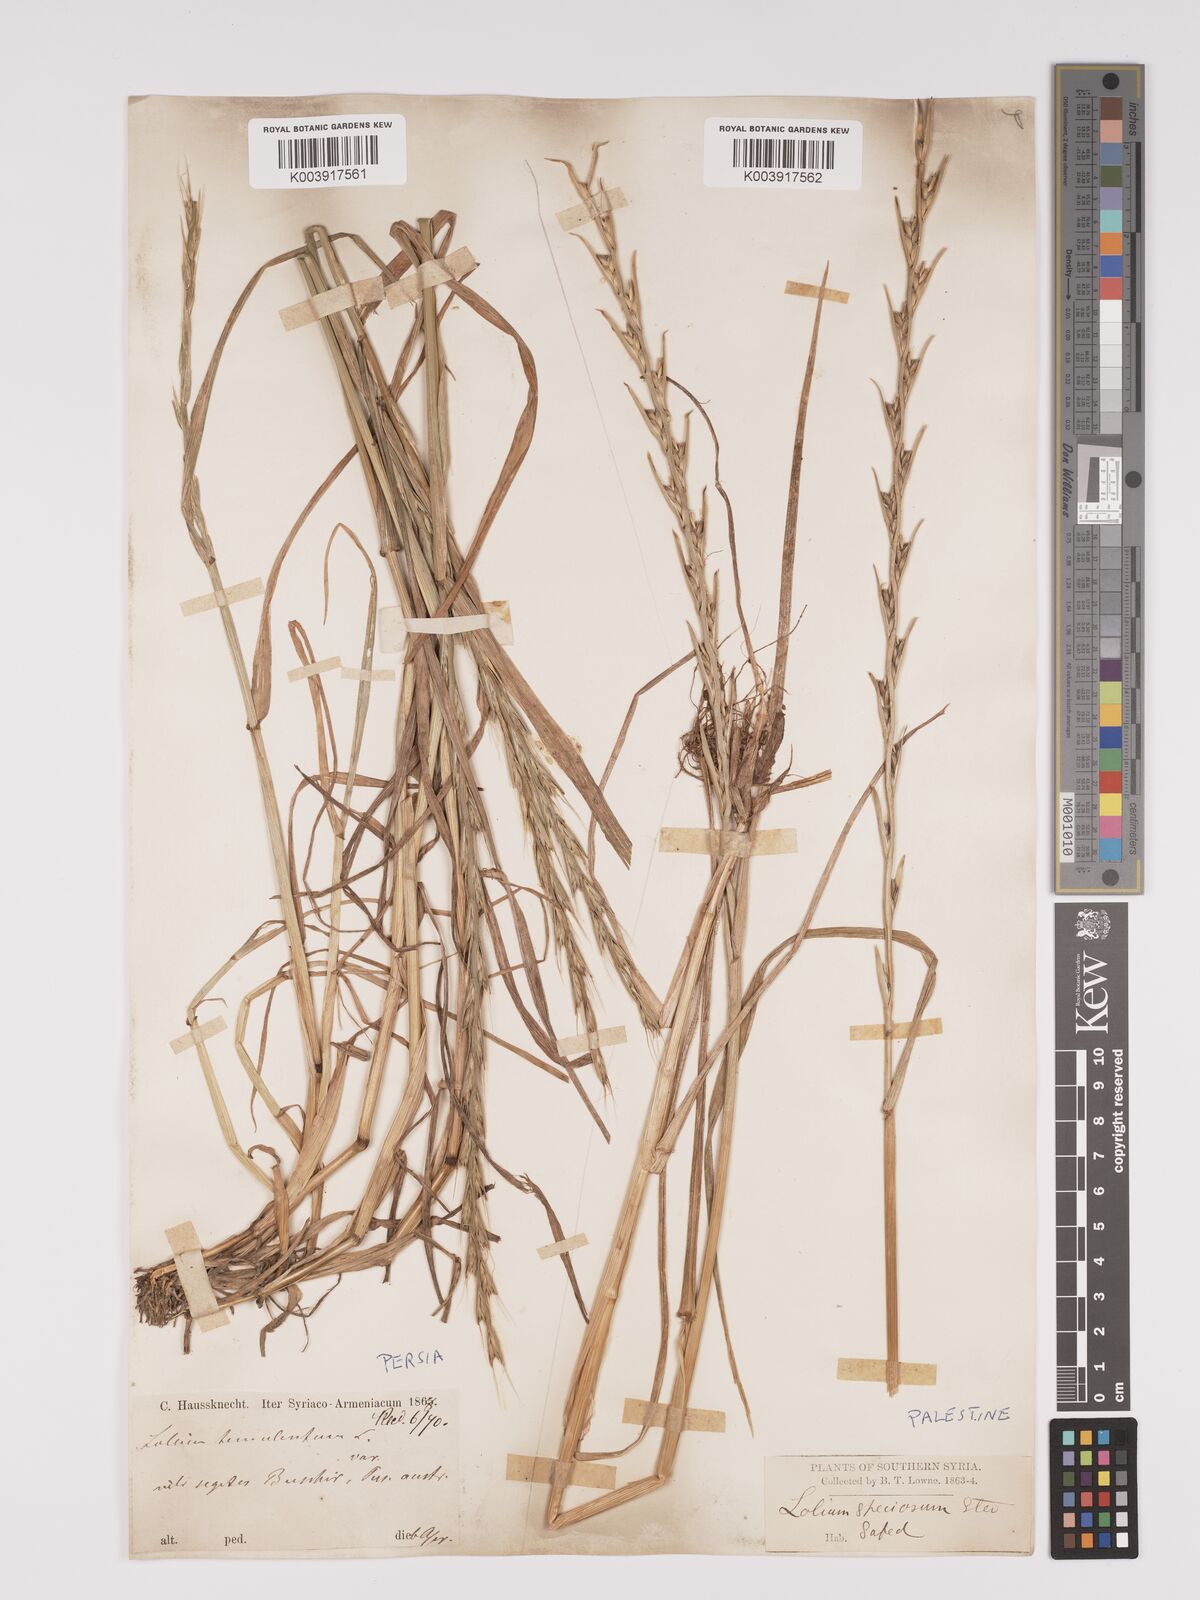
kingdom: Plantae
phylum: Tracheophyta
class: Liliopsida
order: Poales
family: Poaceae
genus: Lolium
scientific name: Lolium temulentum
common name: Darnel
